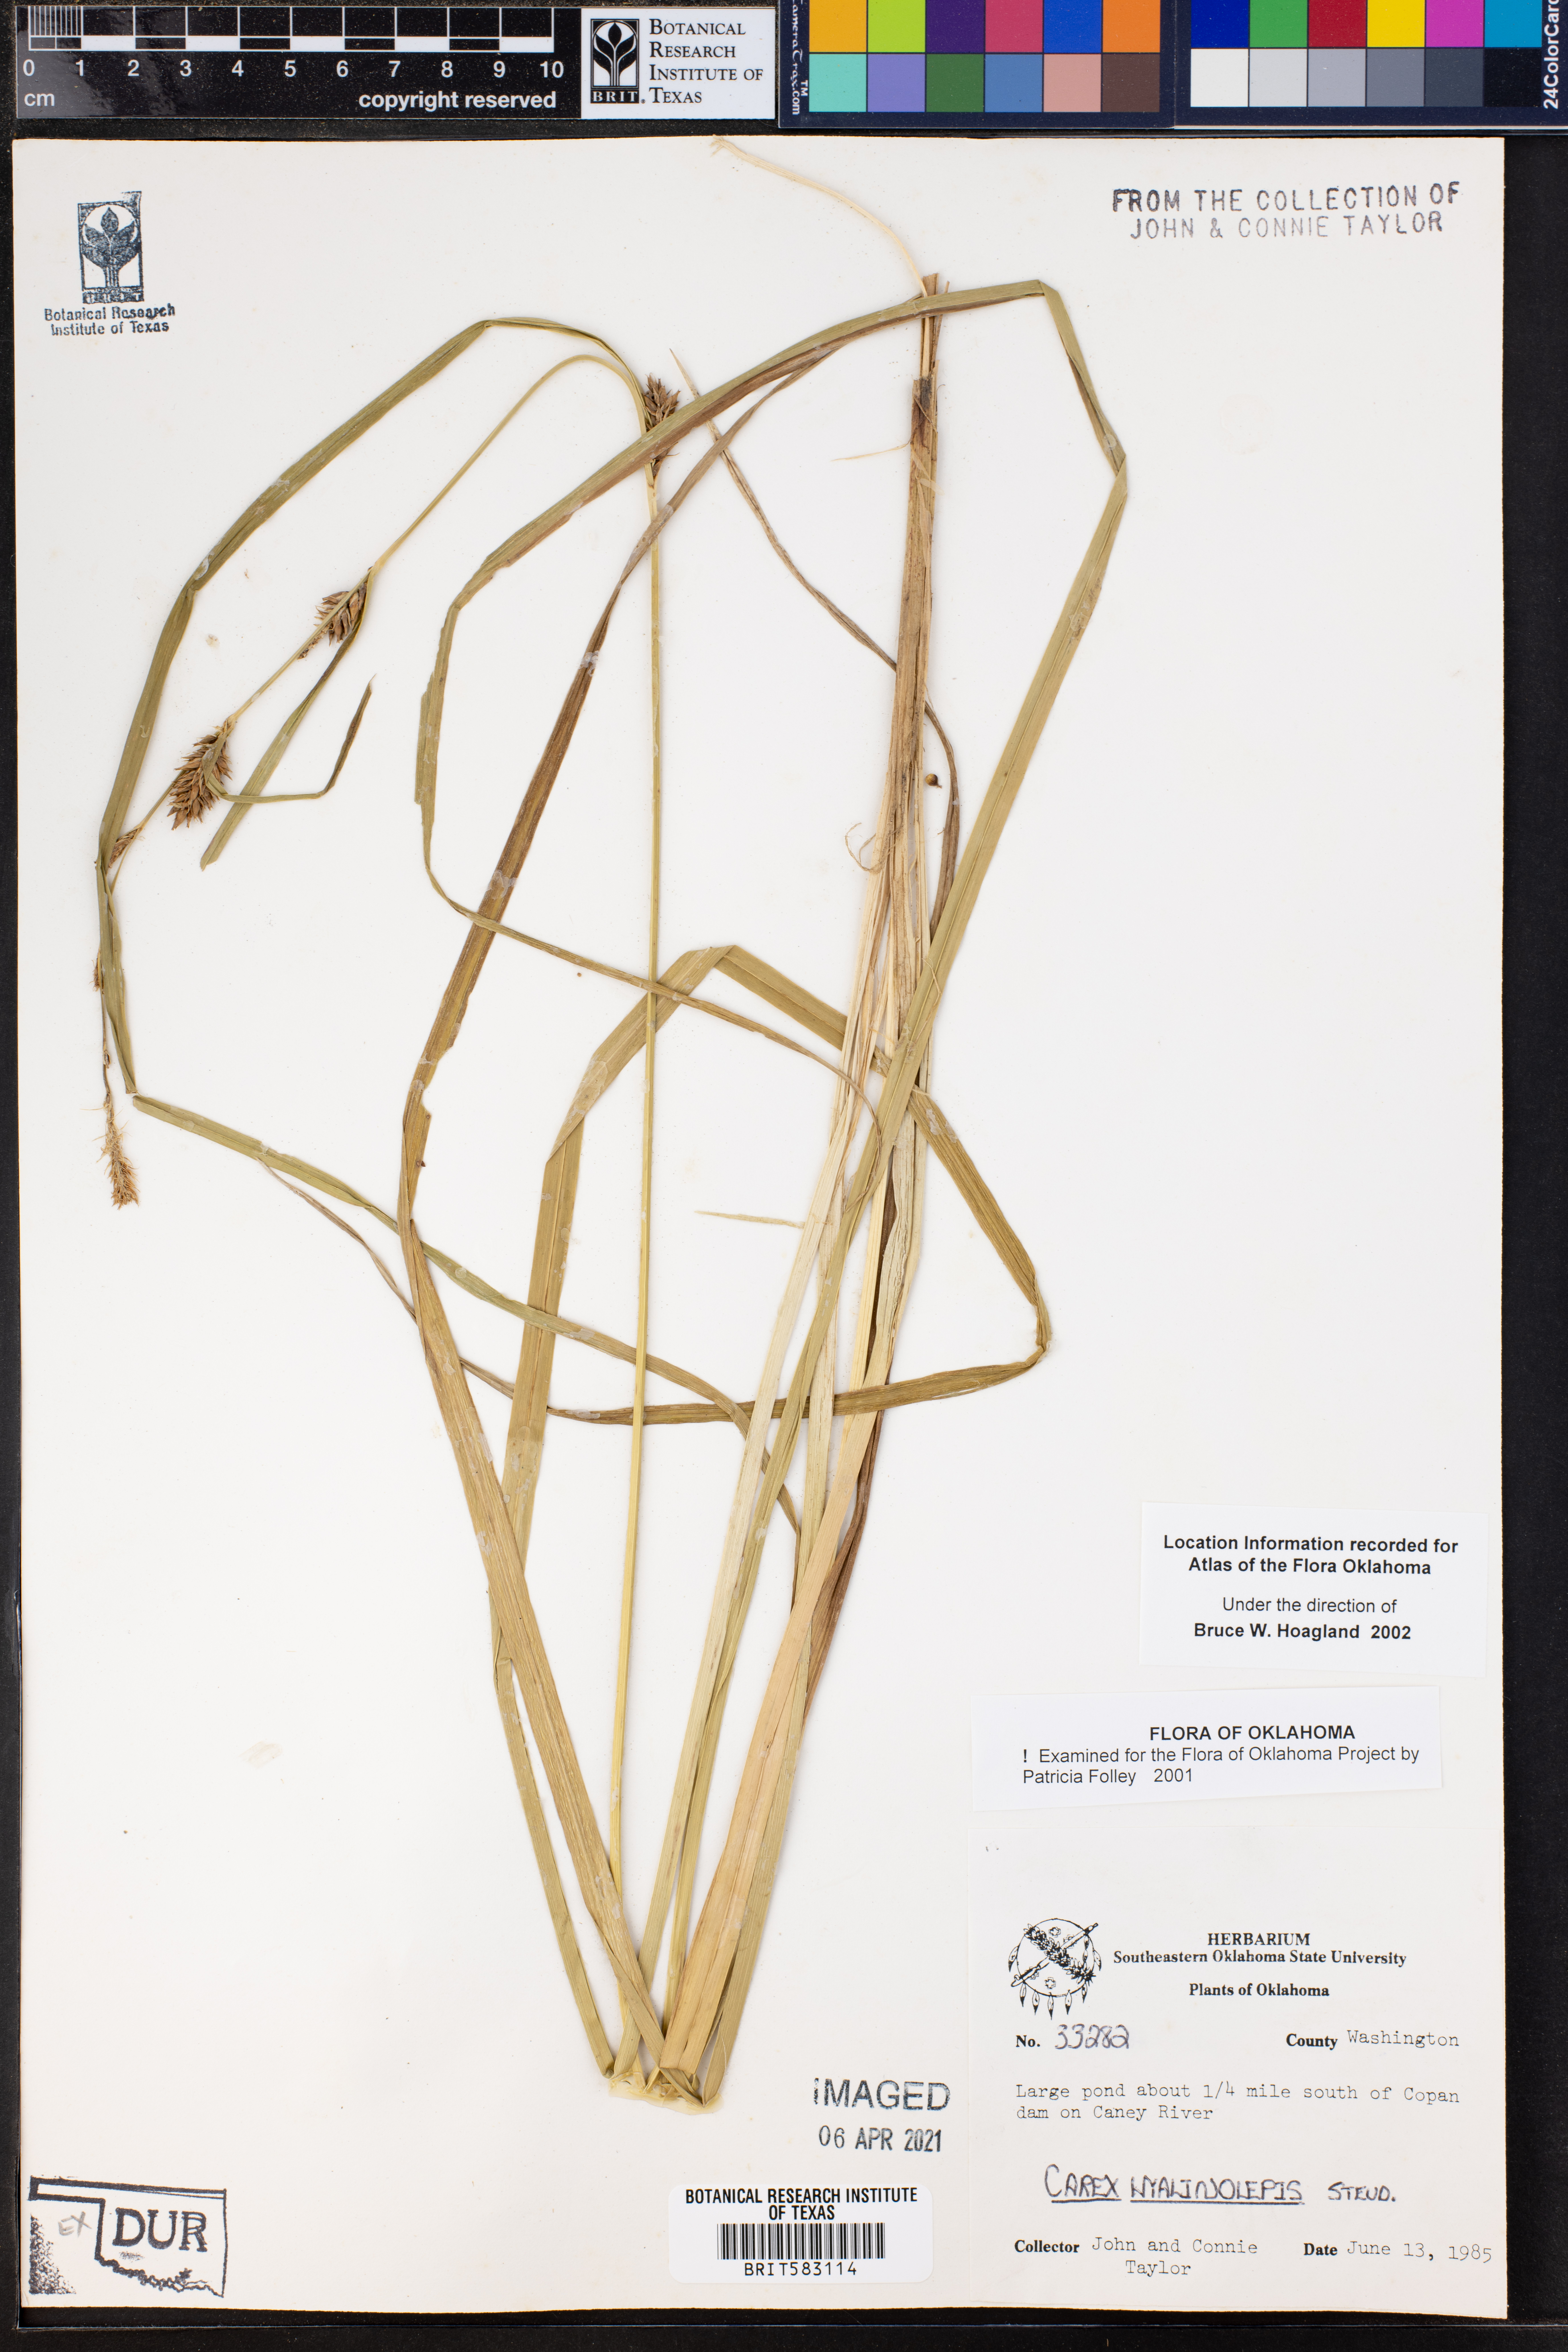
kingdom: Plantae
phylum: Tracheophyta
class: Liliopsida
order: Poales
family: Cyperaceae
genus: Carex
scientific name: Carex hyalinolepis
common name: Shoreline sedge
